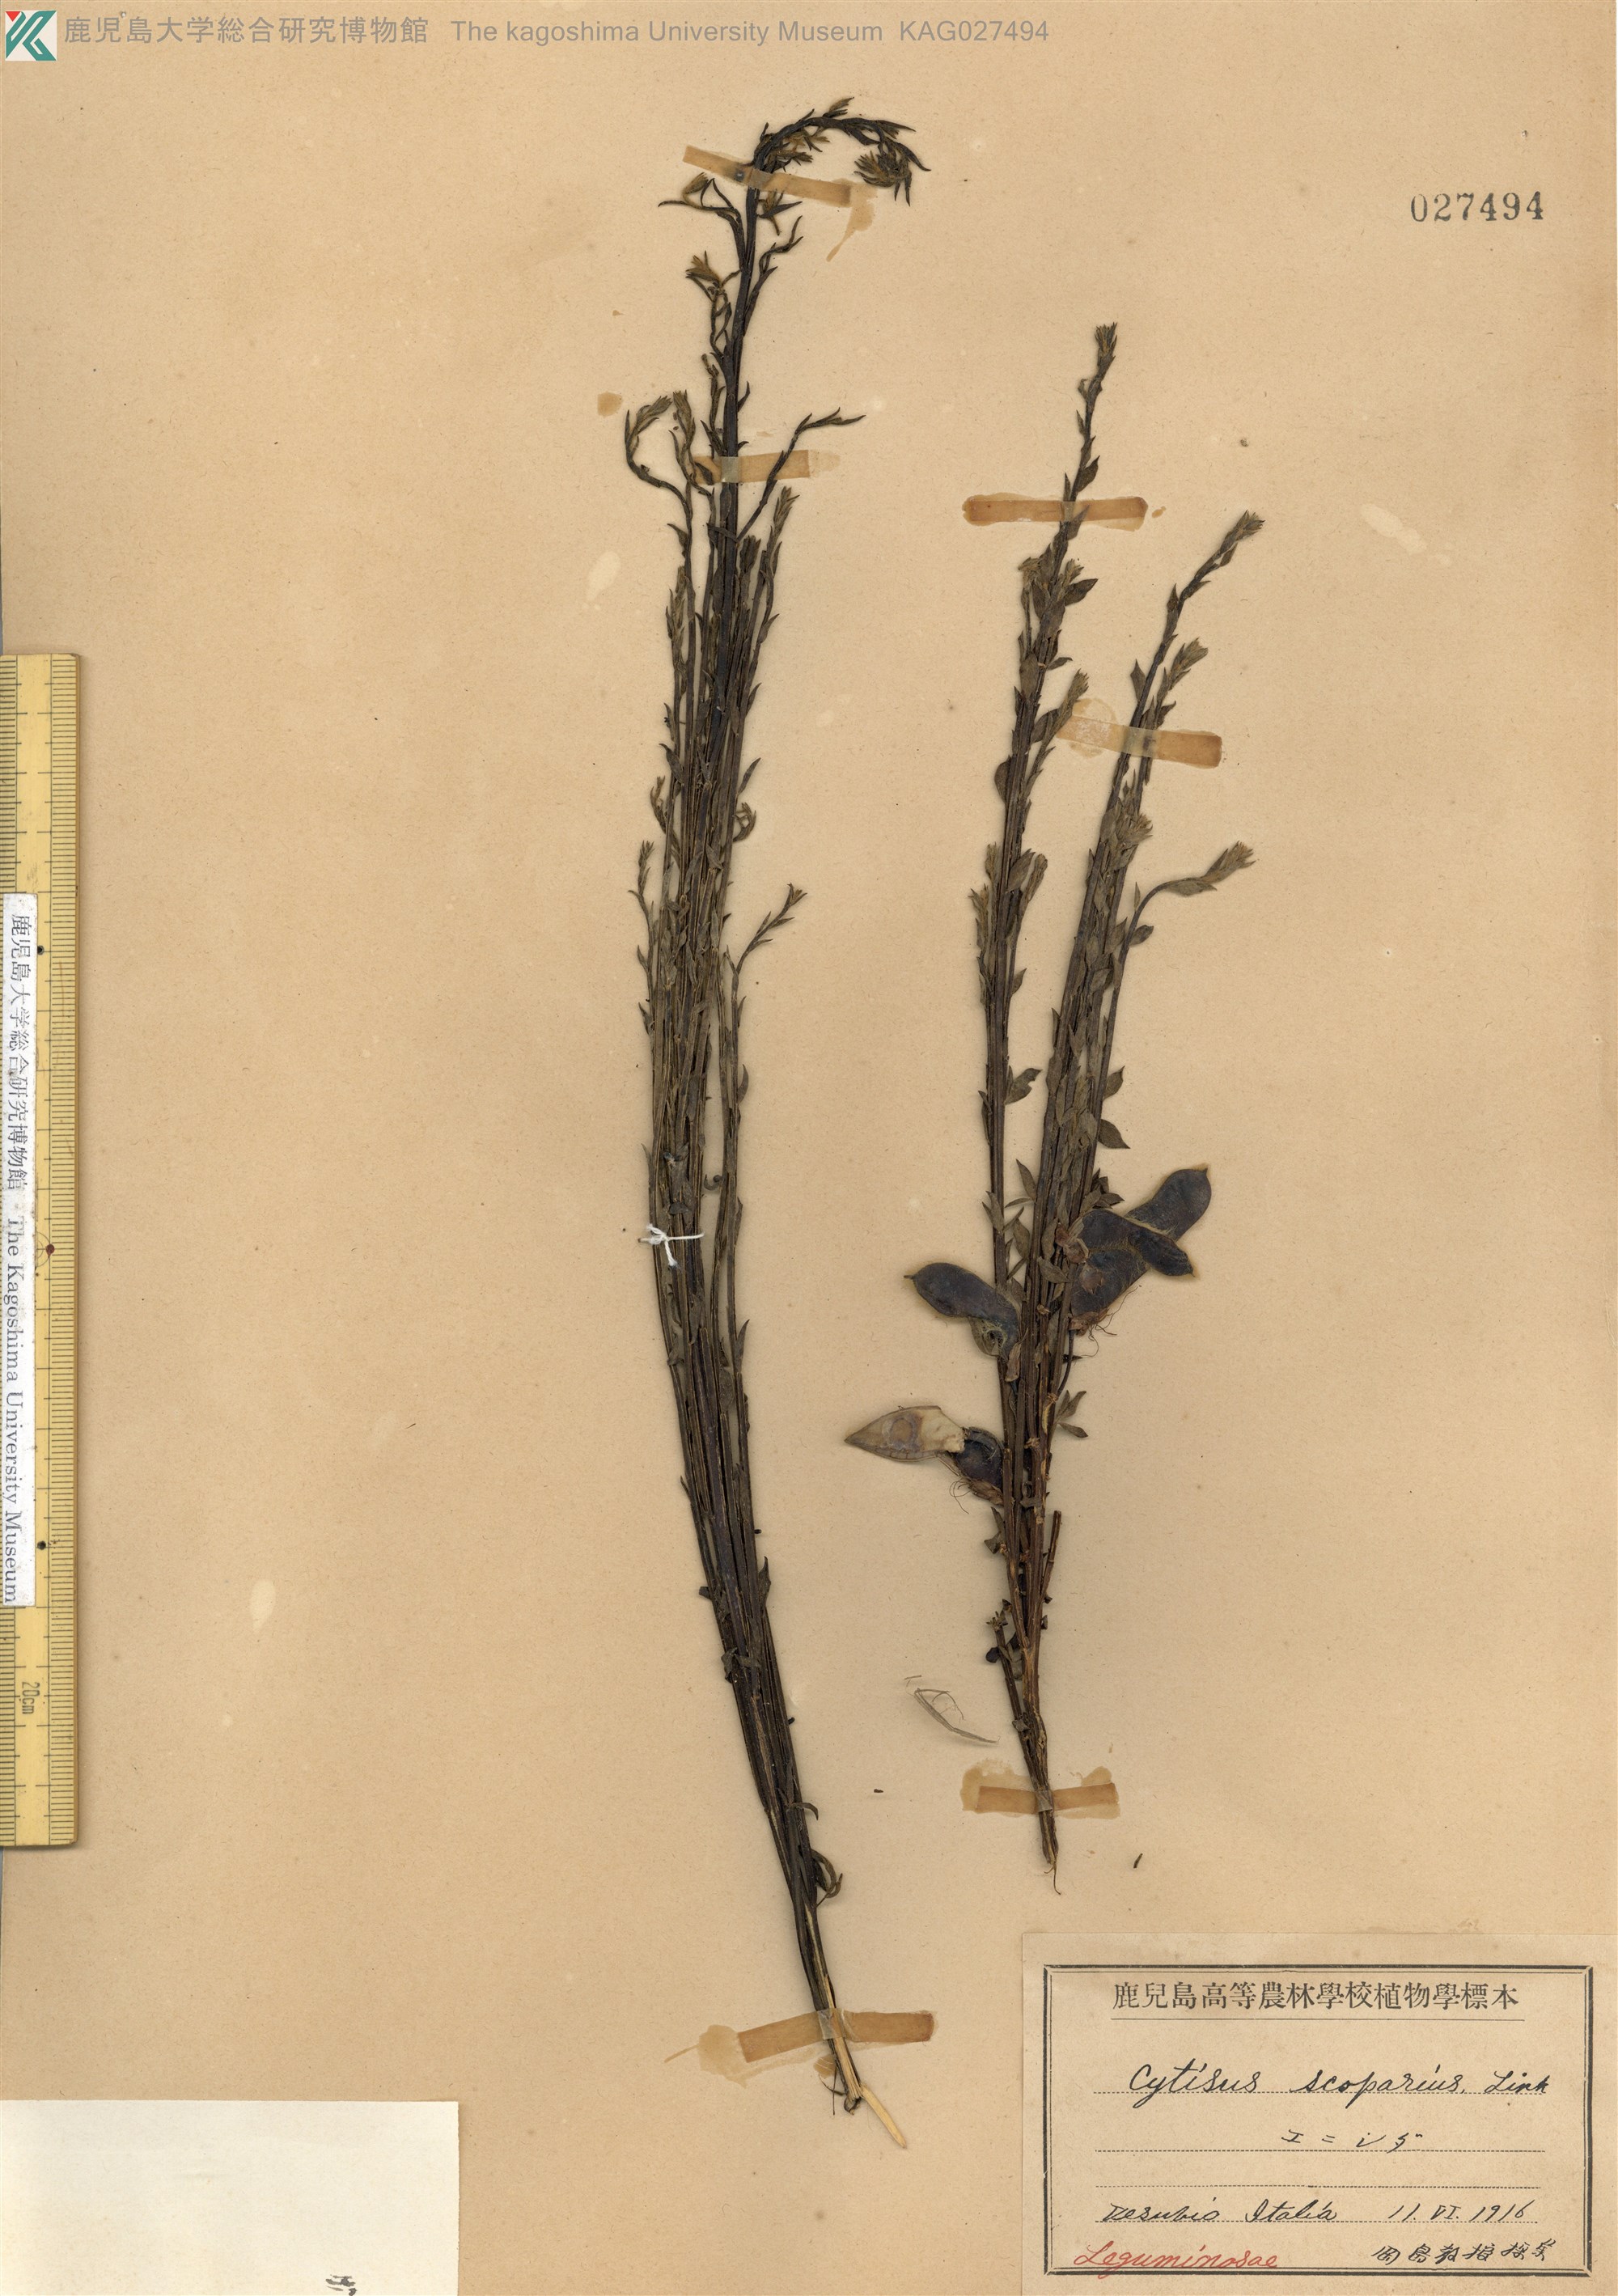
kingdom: Plantae
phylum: Tracheophyta
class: Magnoliopsida
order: Fabales
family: Fabaceae
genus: Cytisus
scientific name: Cytisus scoparius
